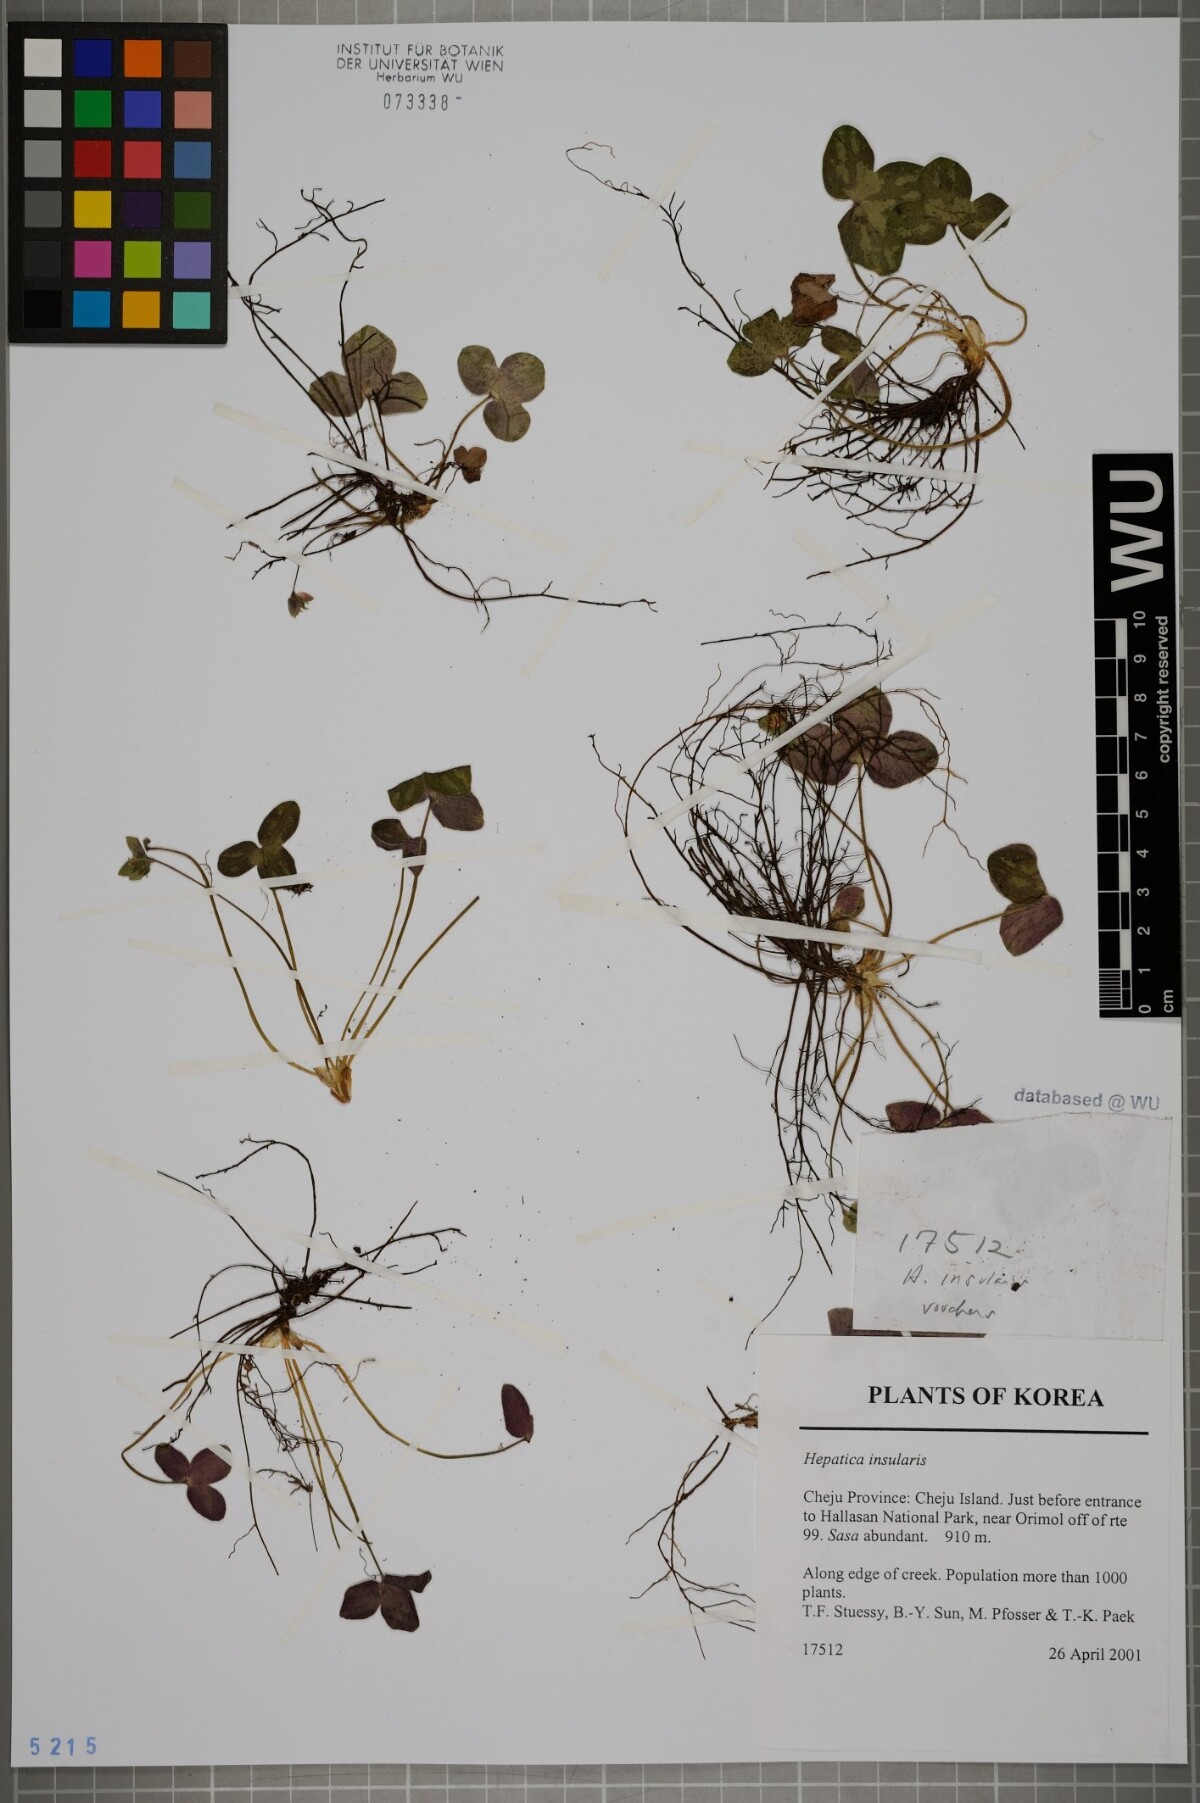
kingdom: Plantae
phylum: Tracheophyta
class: Magnoliopsida
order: Ranunculales
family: Ranunculaceae
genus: Hepatica
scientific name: Hepatica insularis
